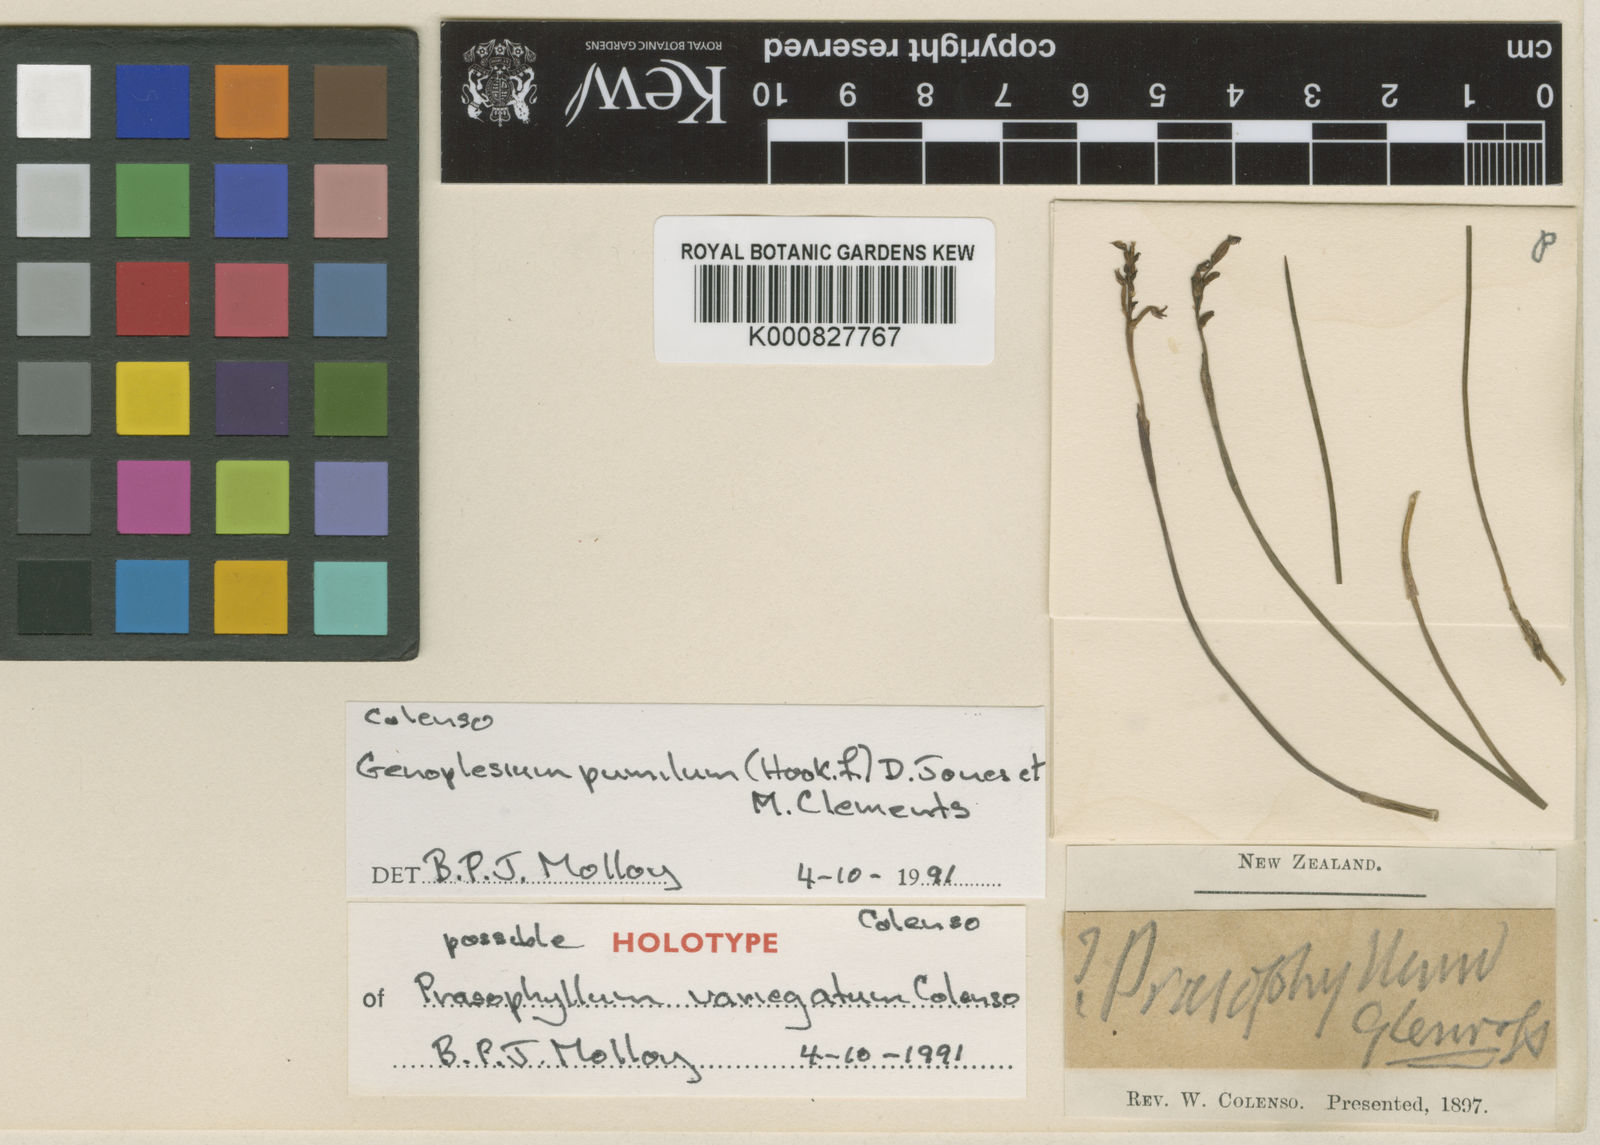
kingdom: Plantae
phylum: Tracheophyta
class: Liliopsida
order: Asparagales
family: Orchidaceae
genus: Genoplesium
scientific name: Genoplesium pumilum
